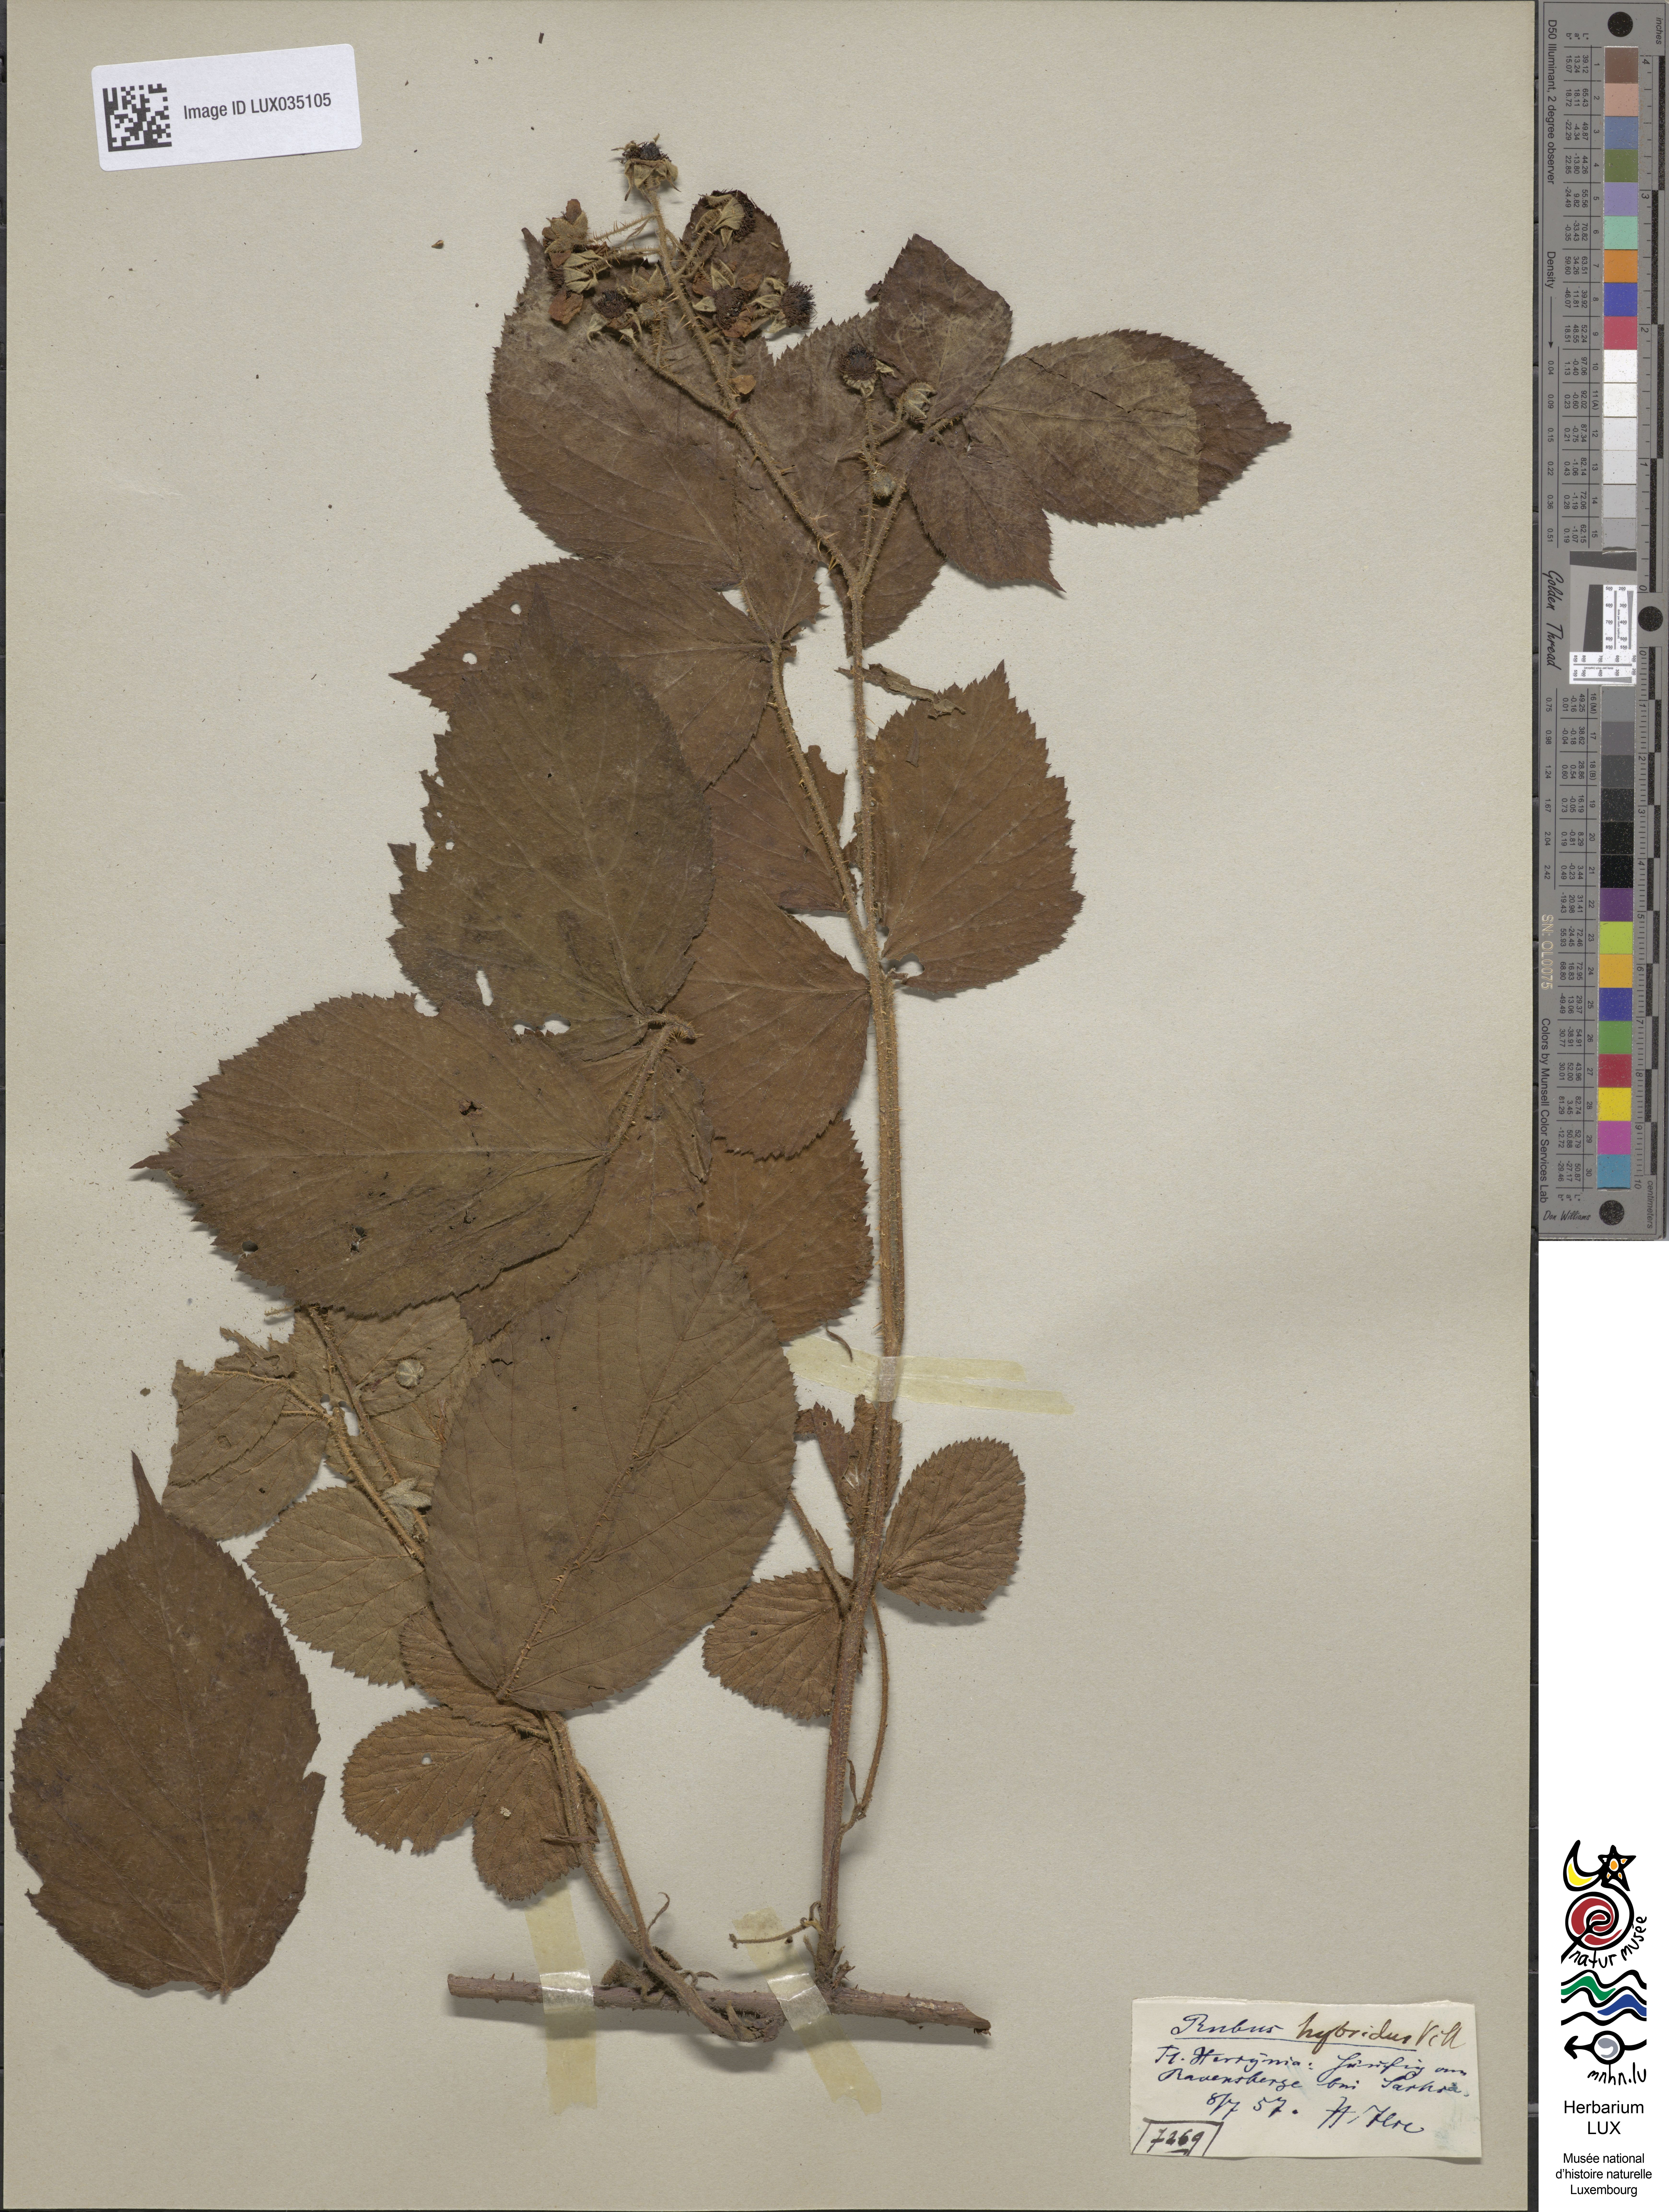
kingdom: Plantae
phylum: Tracheophyta
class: Magnoliopsida
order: Rosales
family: Rosaceae
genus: Rubus
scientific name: Rubus hirtus
